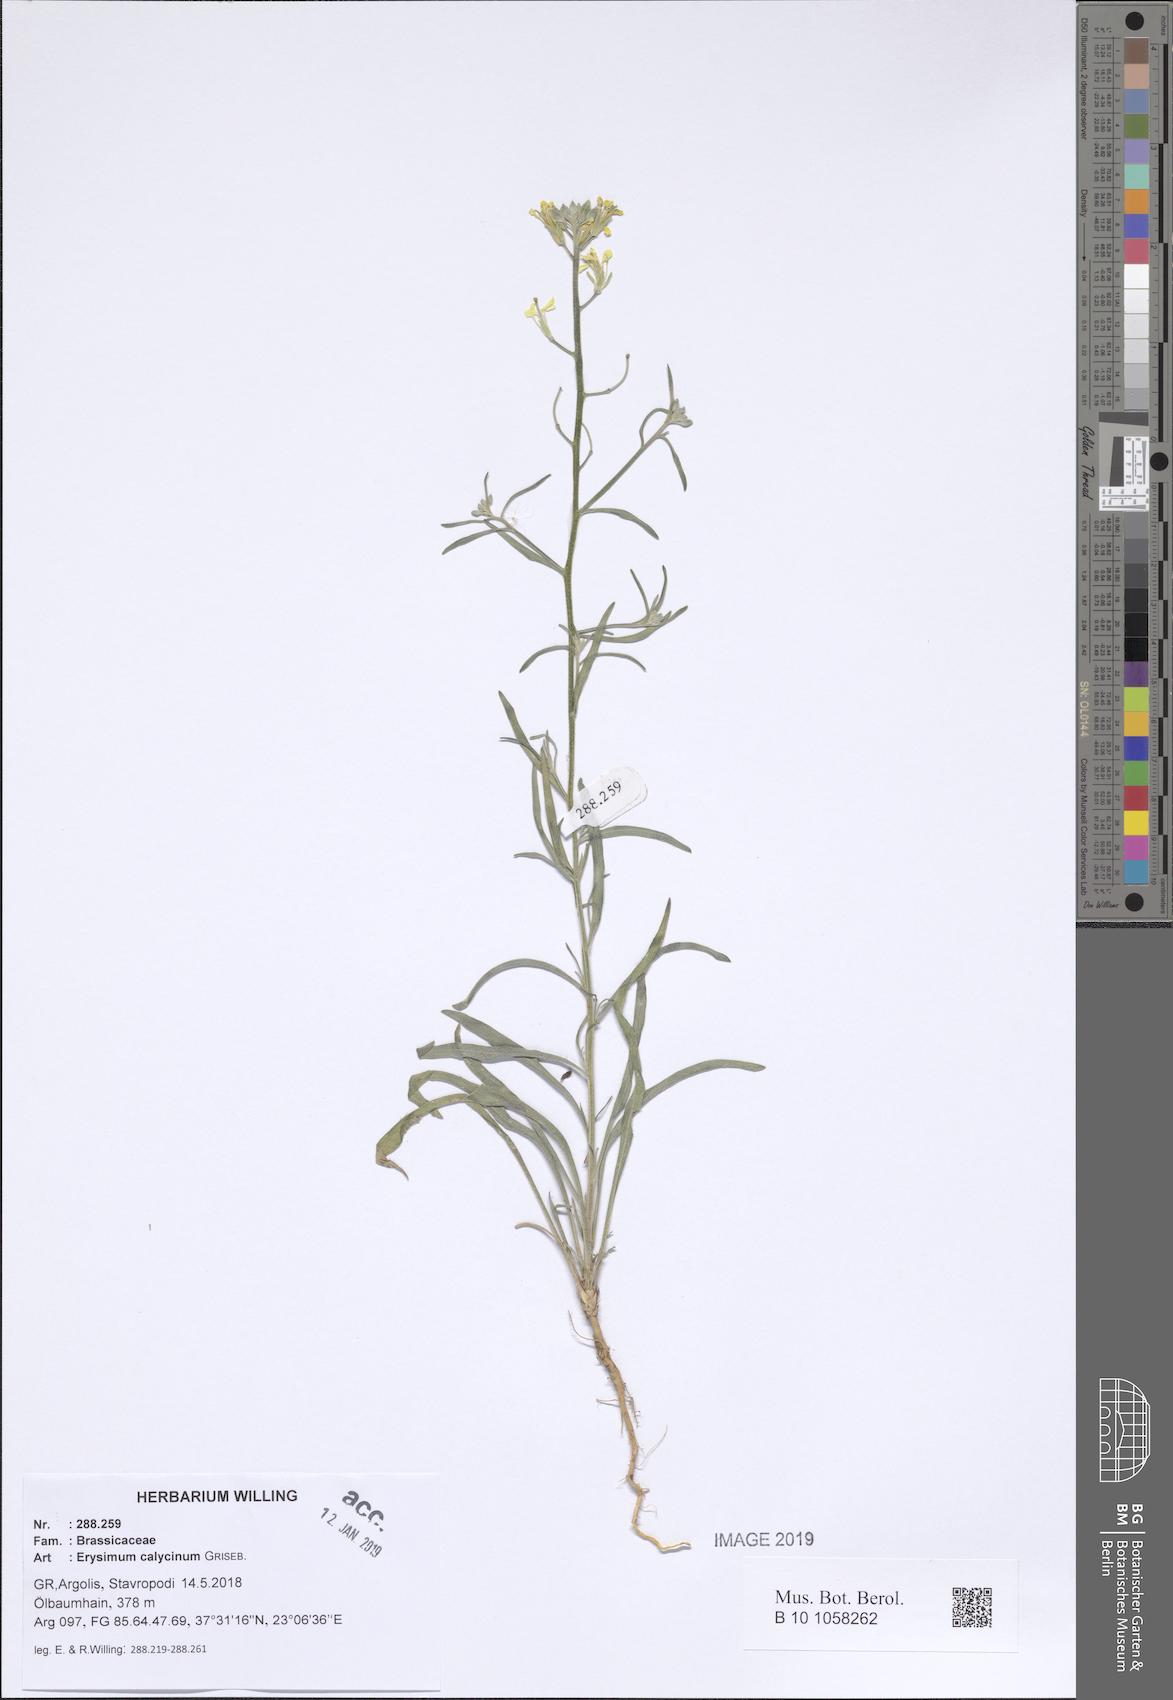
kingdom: Plantae
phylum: Tracheophyta
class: Magnoliopsida
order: Brassicales
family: Brassicaceae
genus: Erysimum
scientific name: Erysimum calycinum
